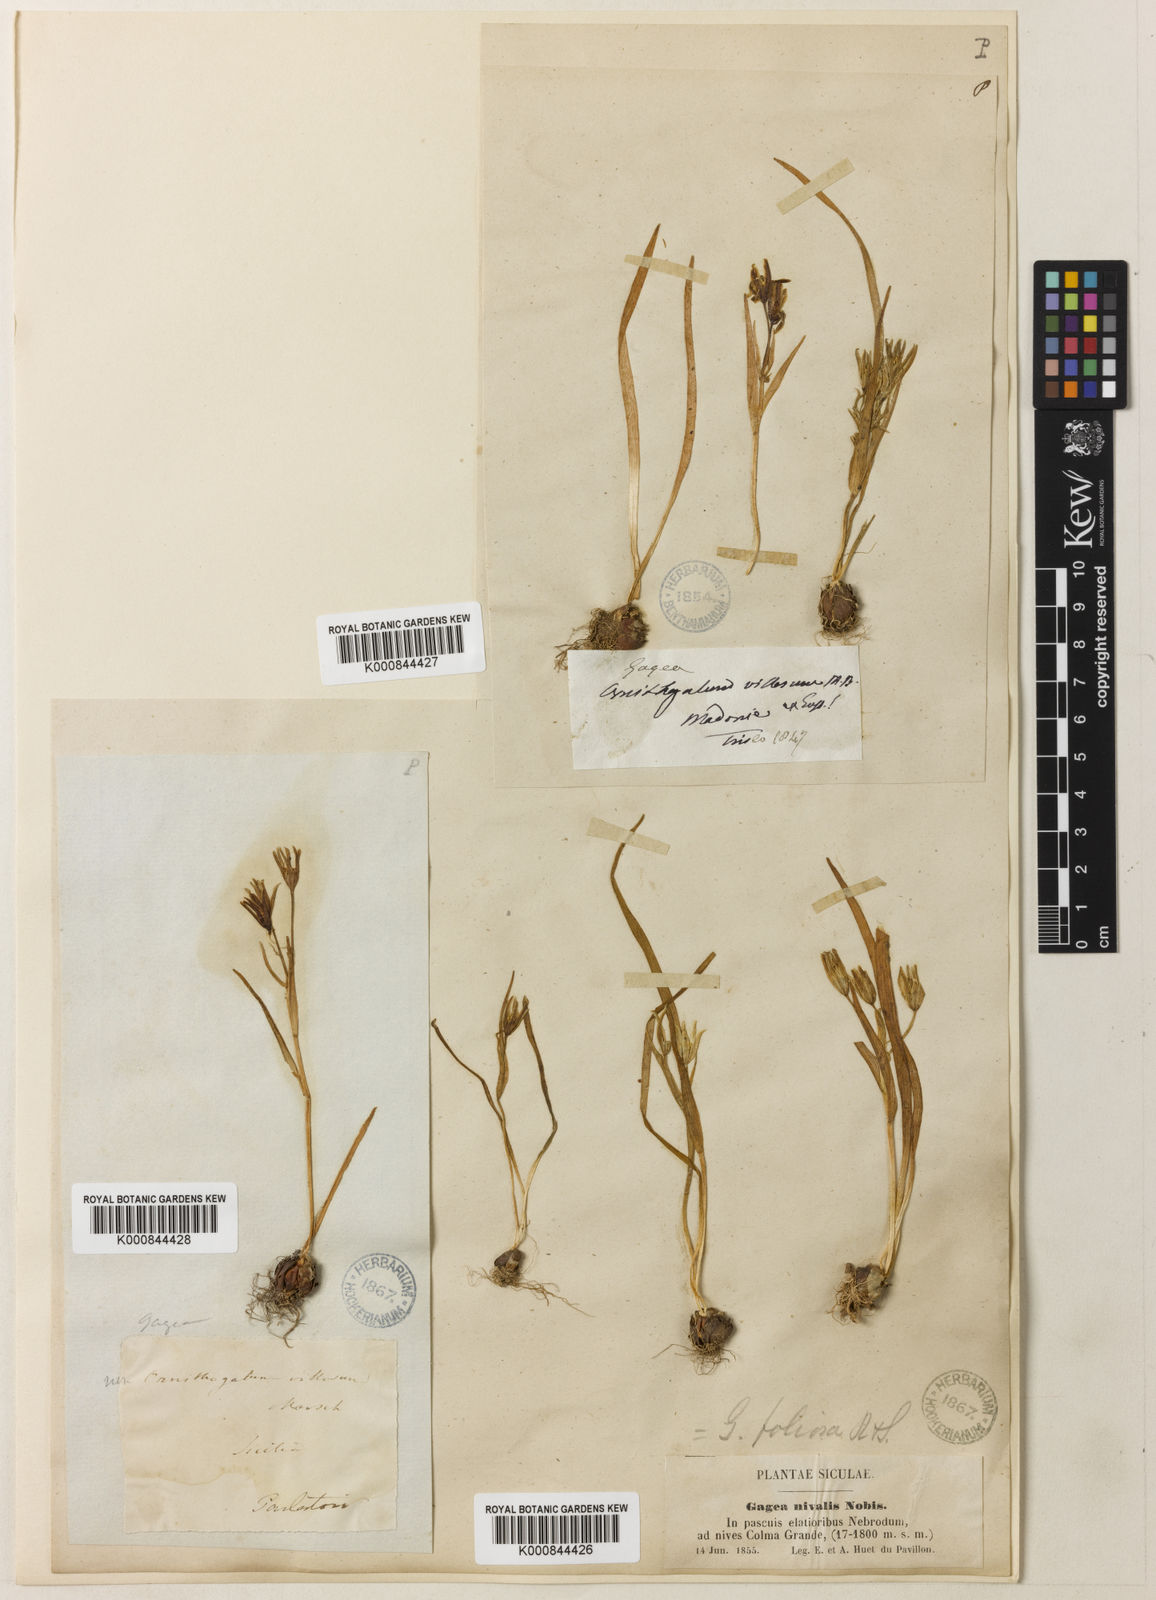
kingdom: Plantae
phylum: Tracheophyta
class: Liliopsida
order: Liliales
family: Liliaceae
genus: Gagea
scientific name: Gagea foliosa
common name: Leafy gagea
